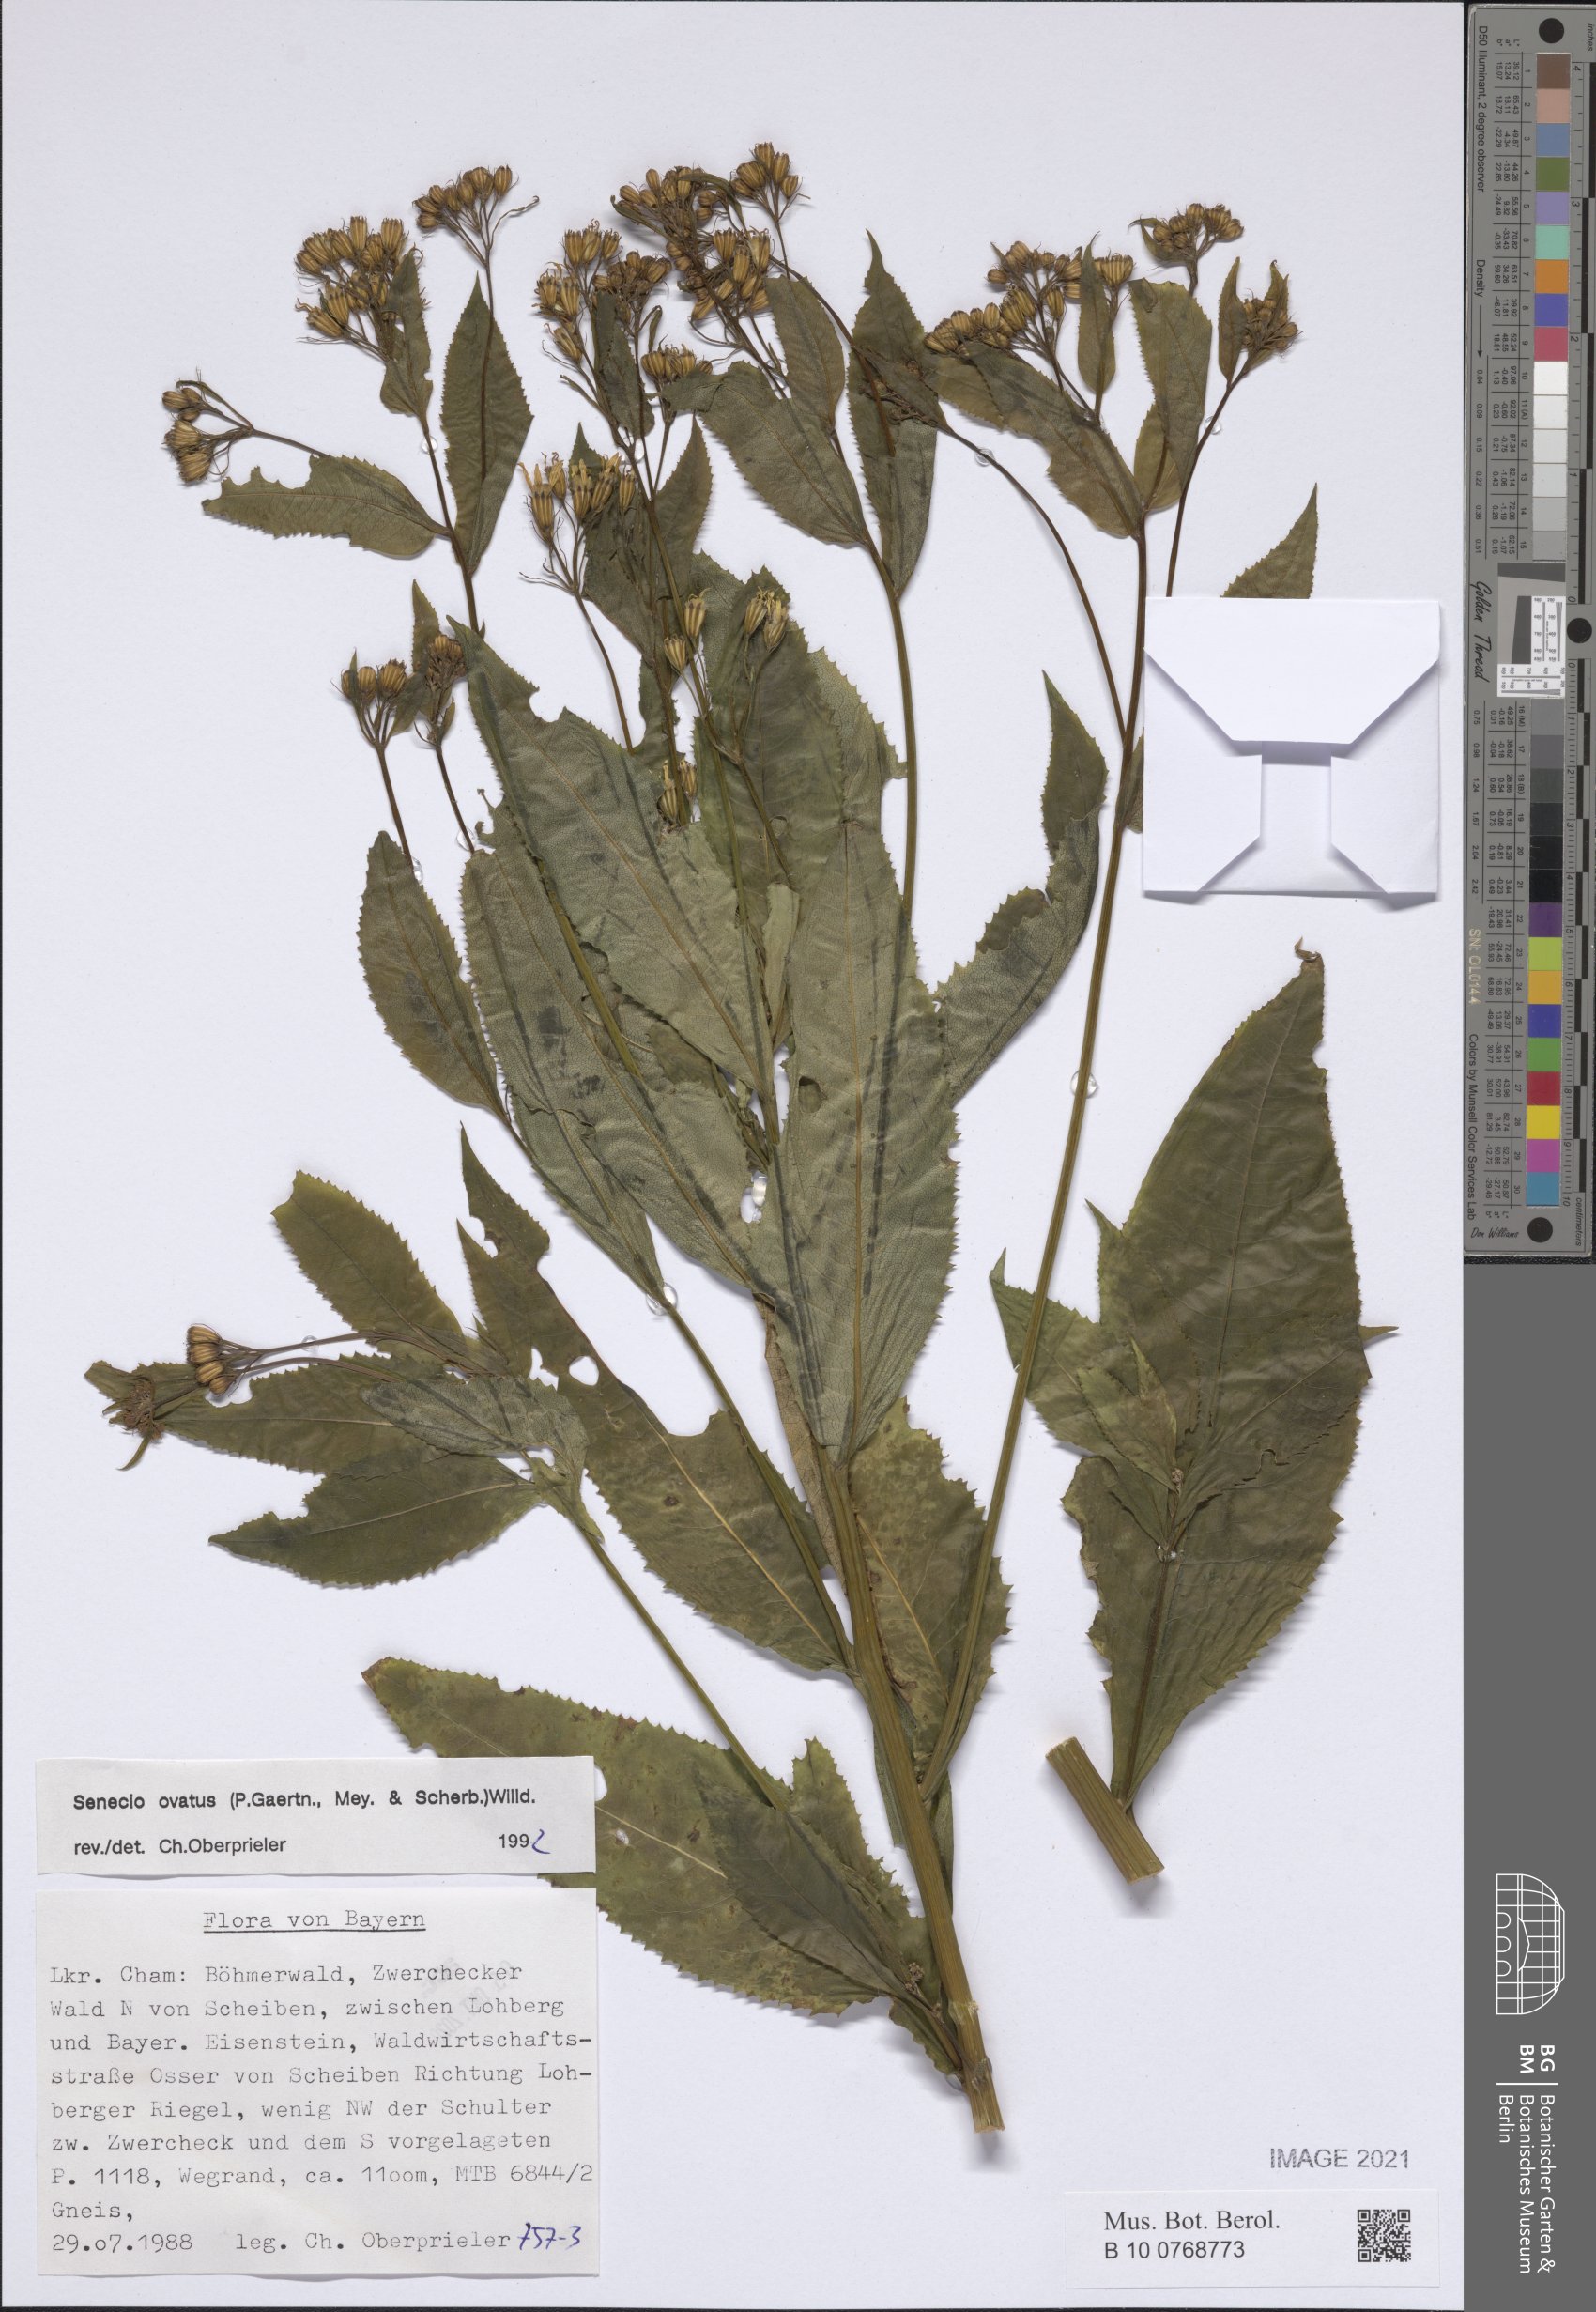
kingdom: Plantae
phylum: Tracheophyta
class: Magnoliopsida
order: Asterales
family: Asteraceae
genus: Senecio
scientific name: Senecio ovatus
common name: Wood ragwort
